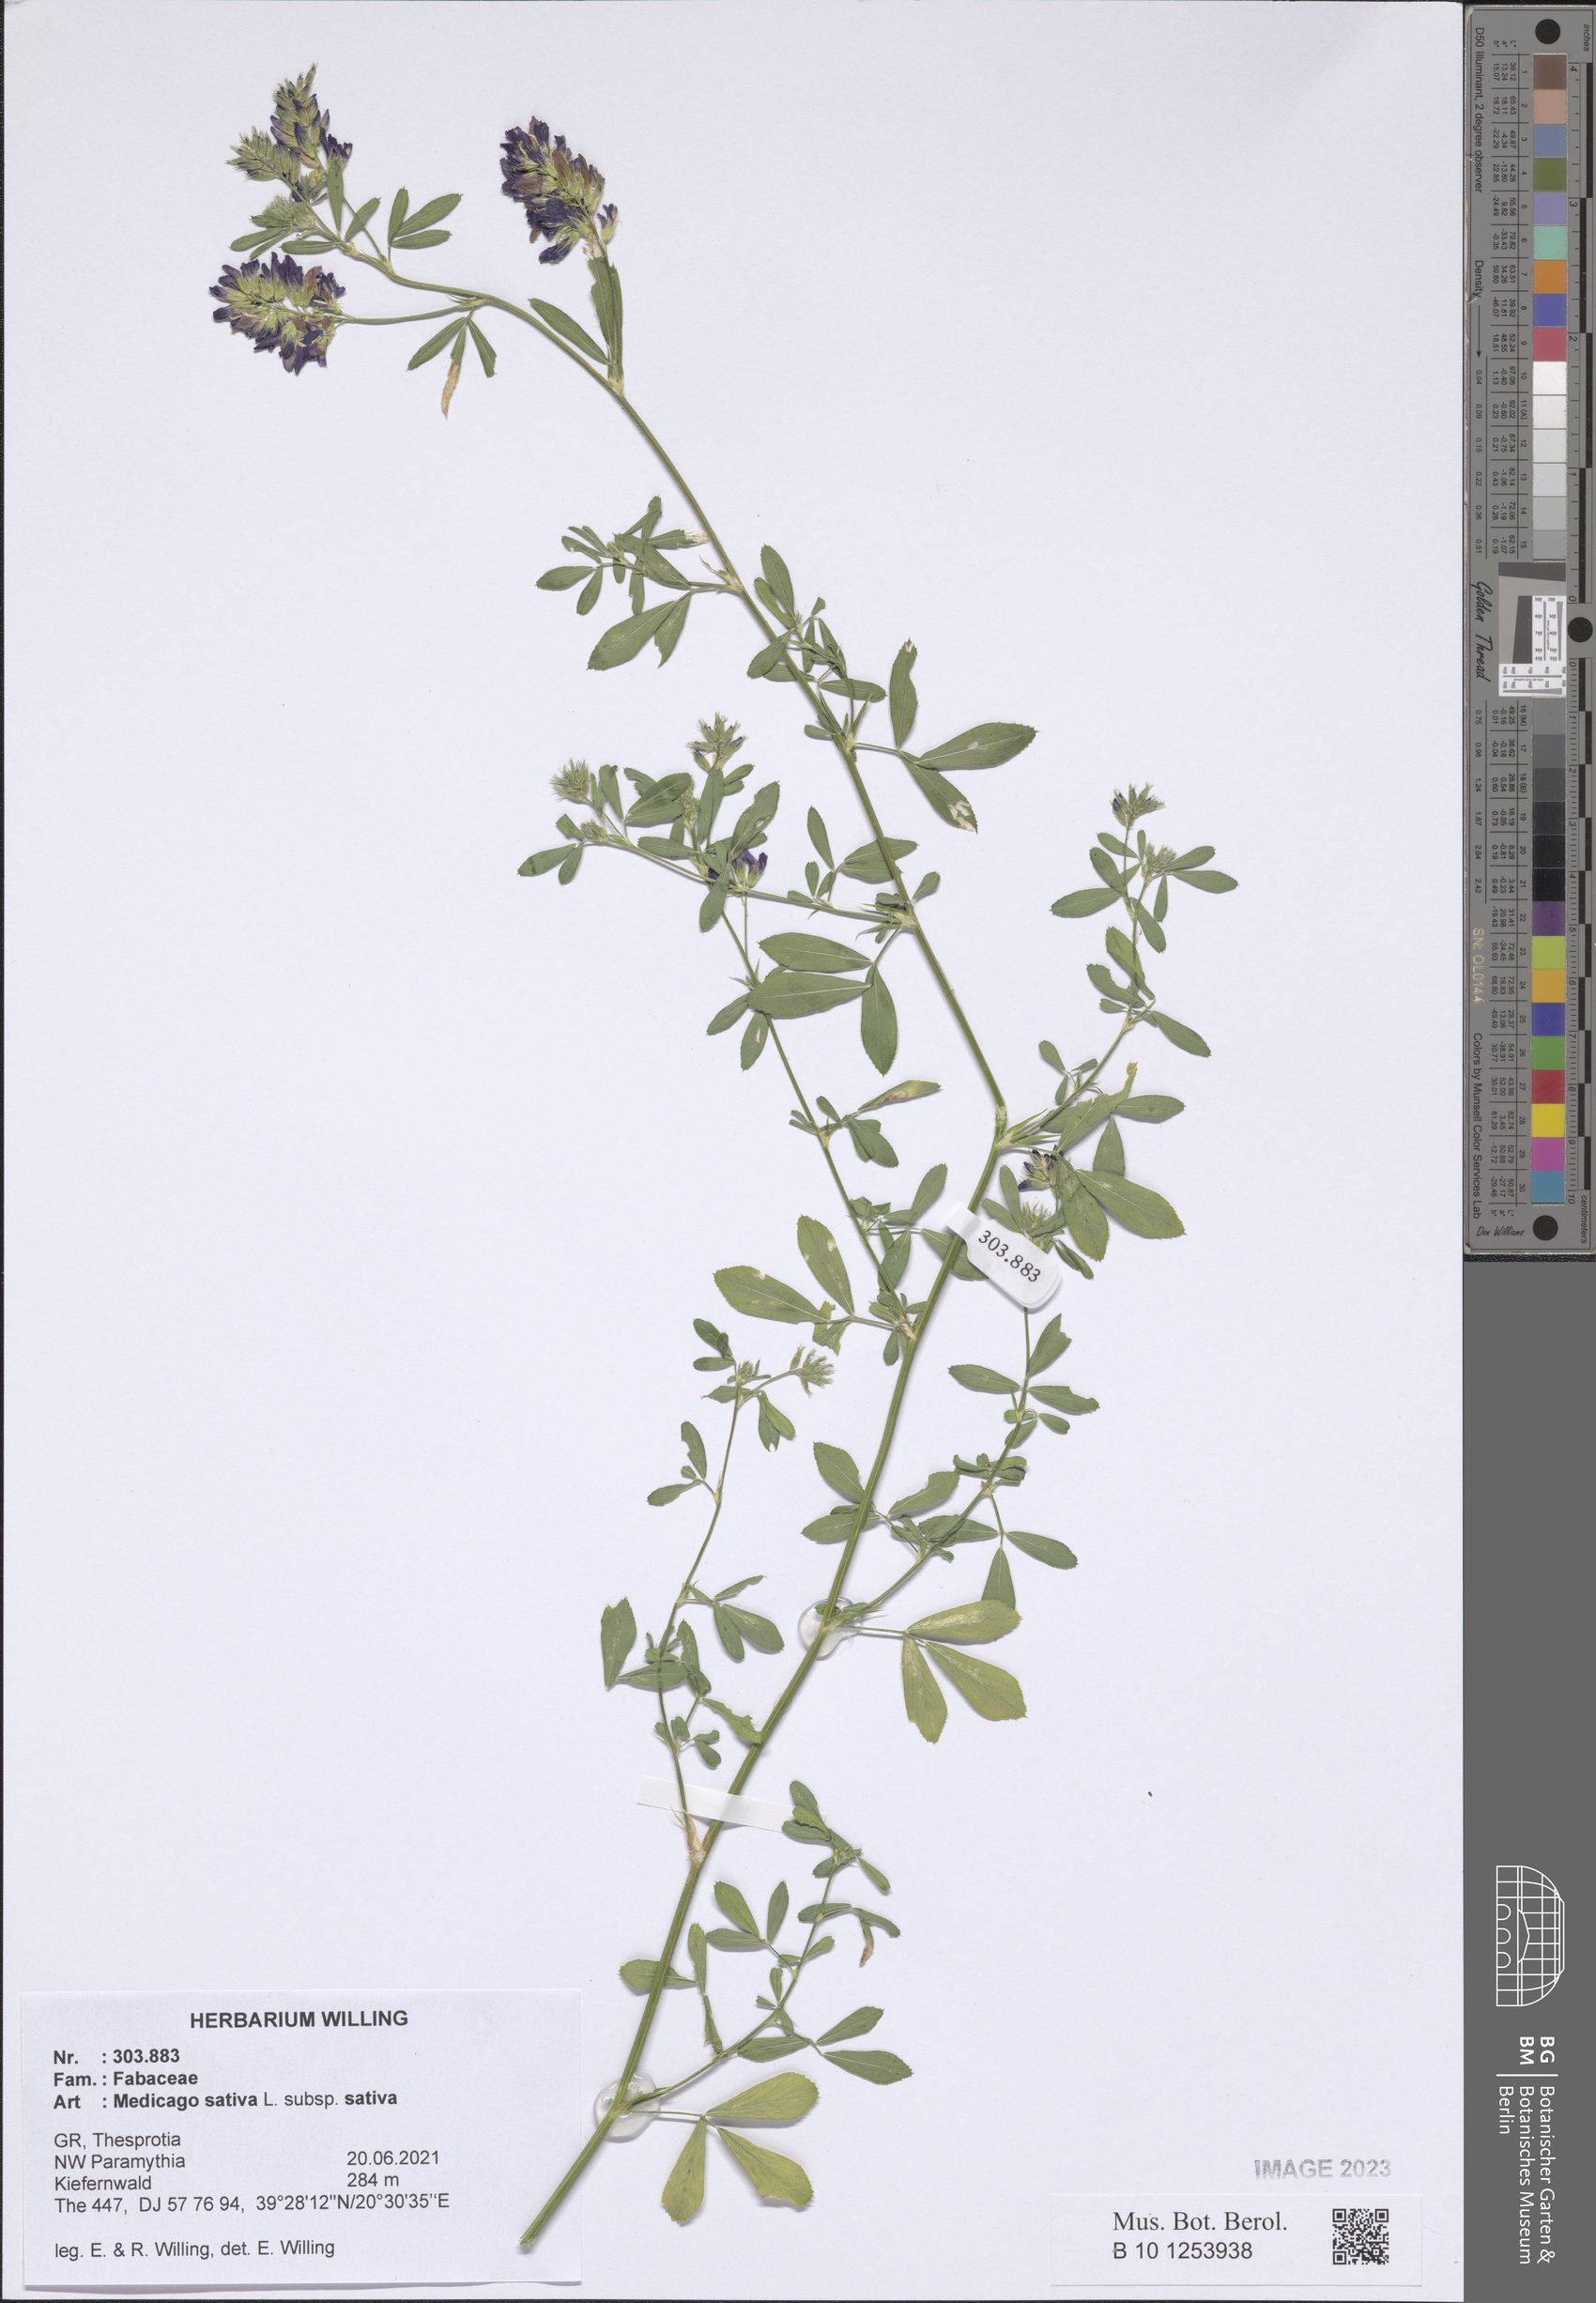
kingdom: Plantae
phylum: Tracheophyta
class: Magnoliopsida
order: Fabales
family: Fabaceae
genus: Medicago
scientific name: Medicago sativa
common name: Alfalfa
